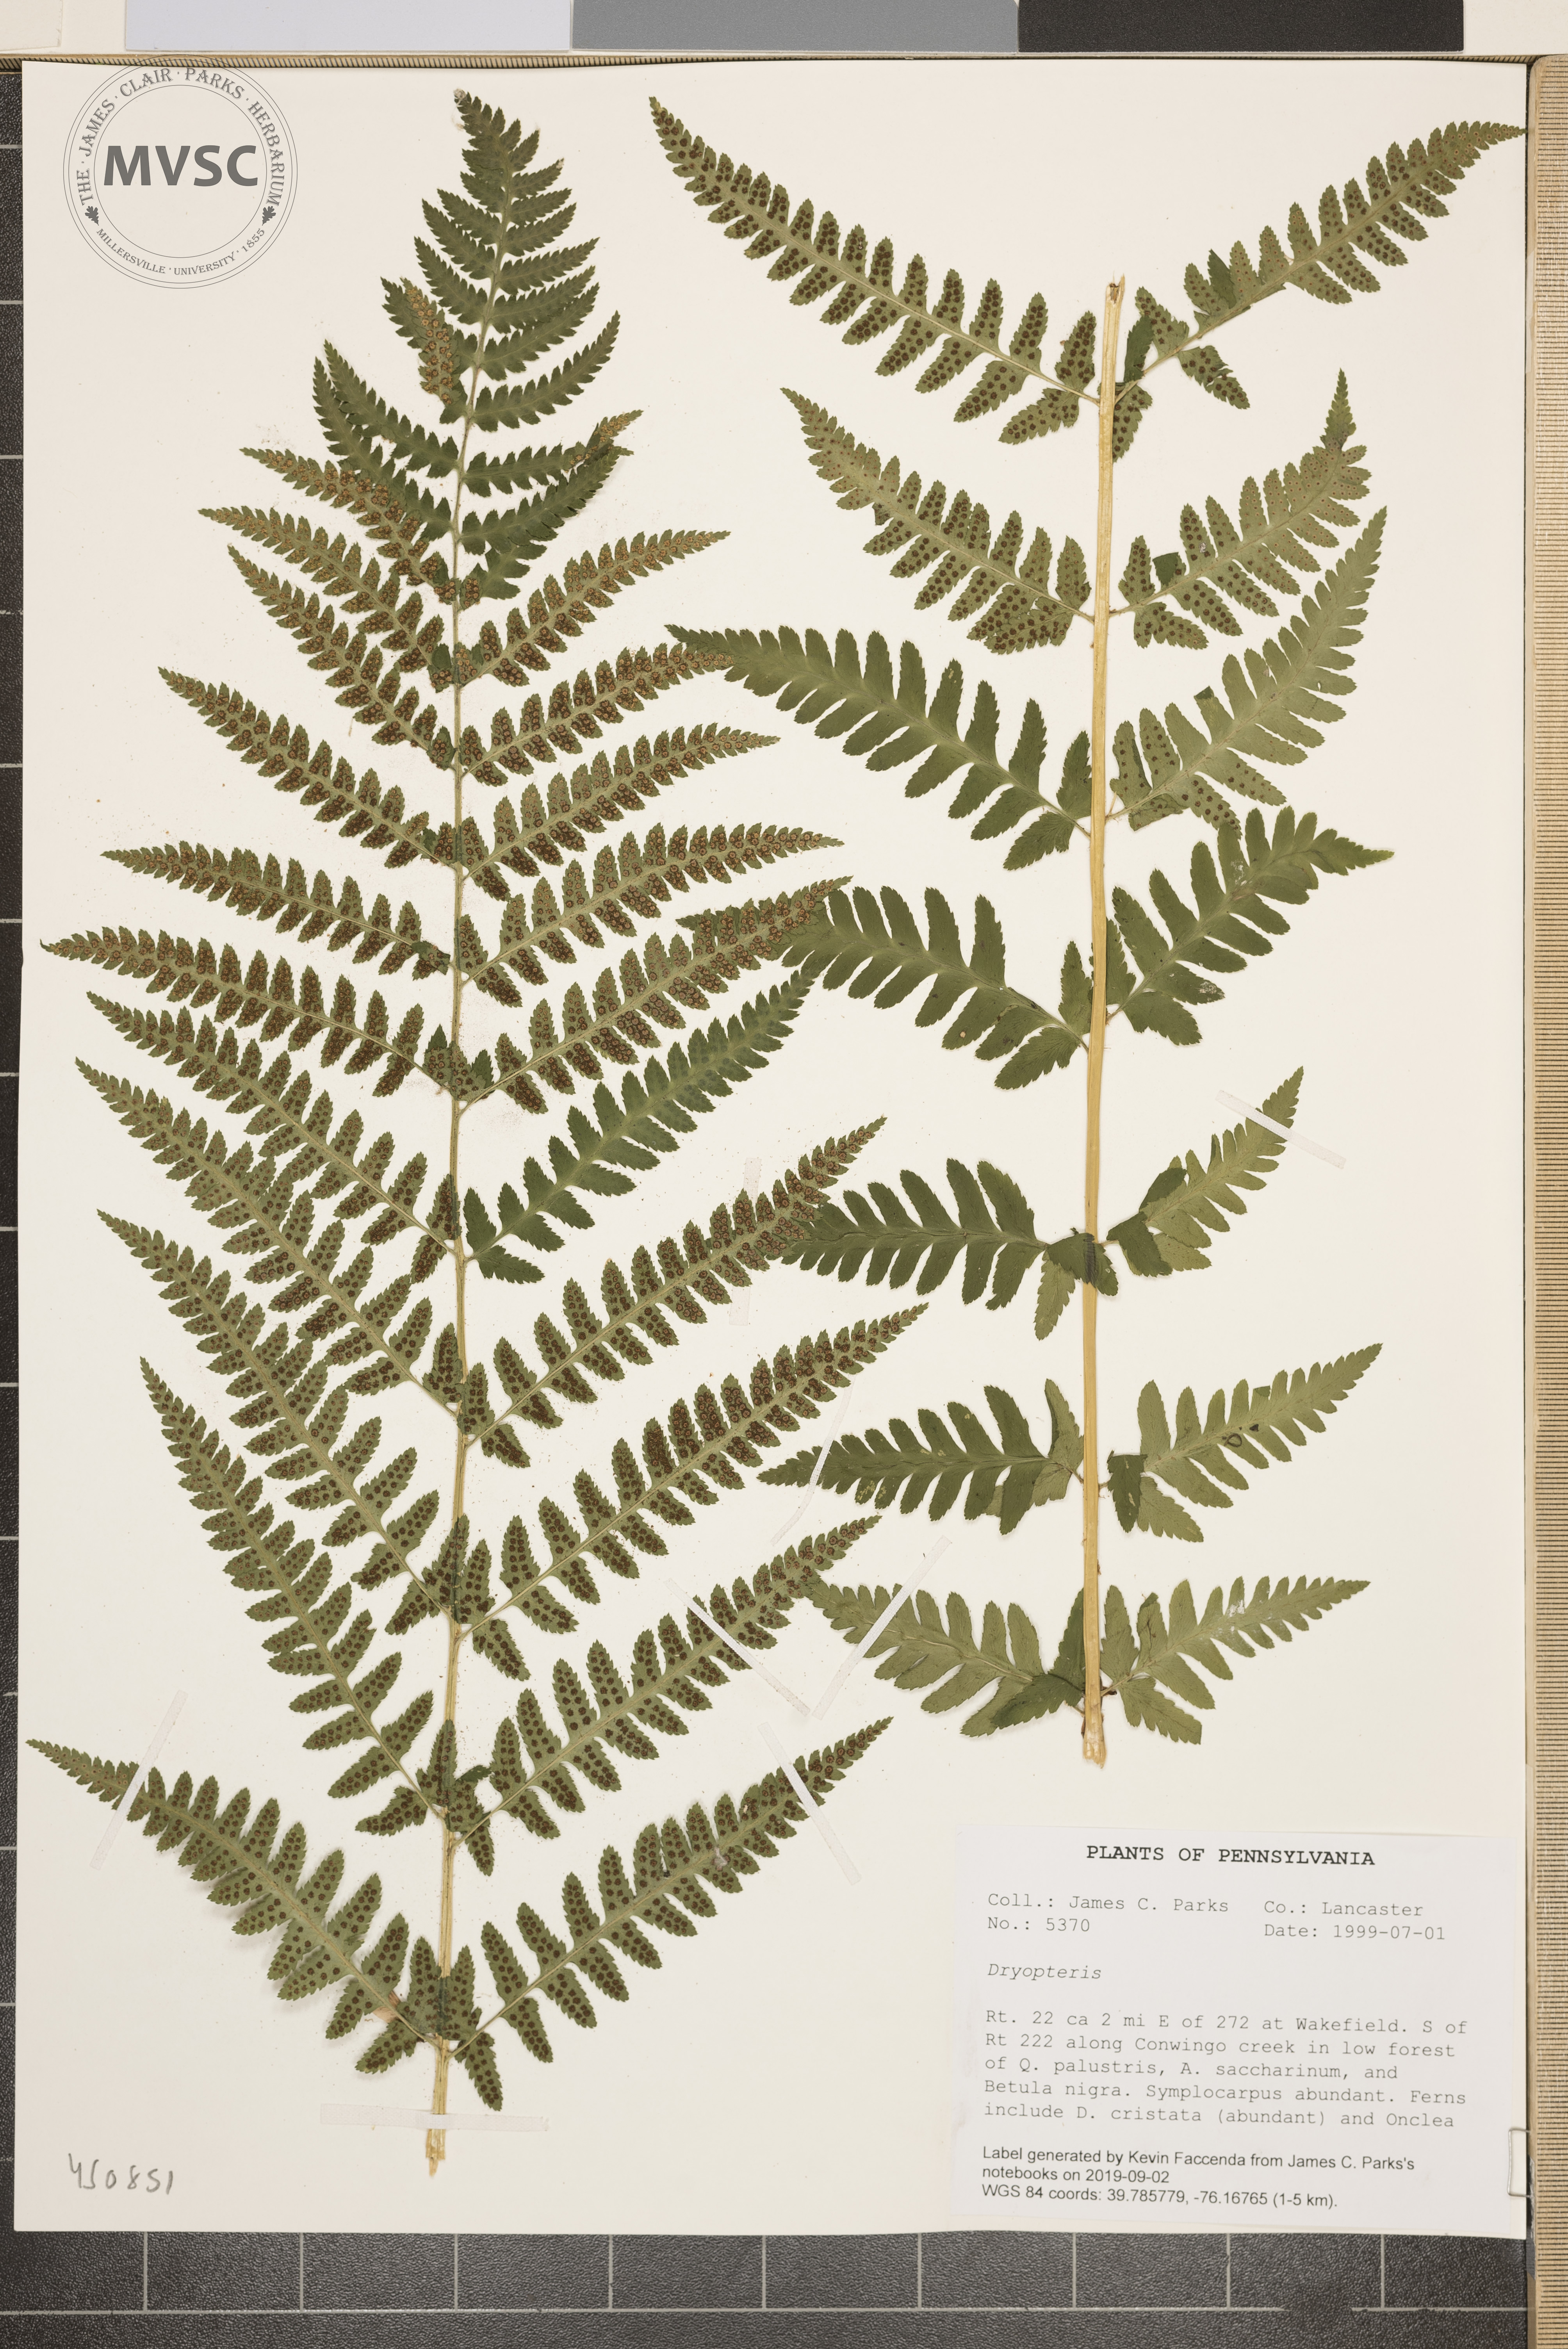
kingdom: Plantae
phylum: Tracheophyta
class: Polypodiopsida
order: Polypodiales
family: Dryopteridaceae
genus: Dryopteris
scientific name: Dryopteris boottii
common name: Boott's fern
